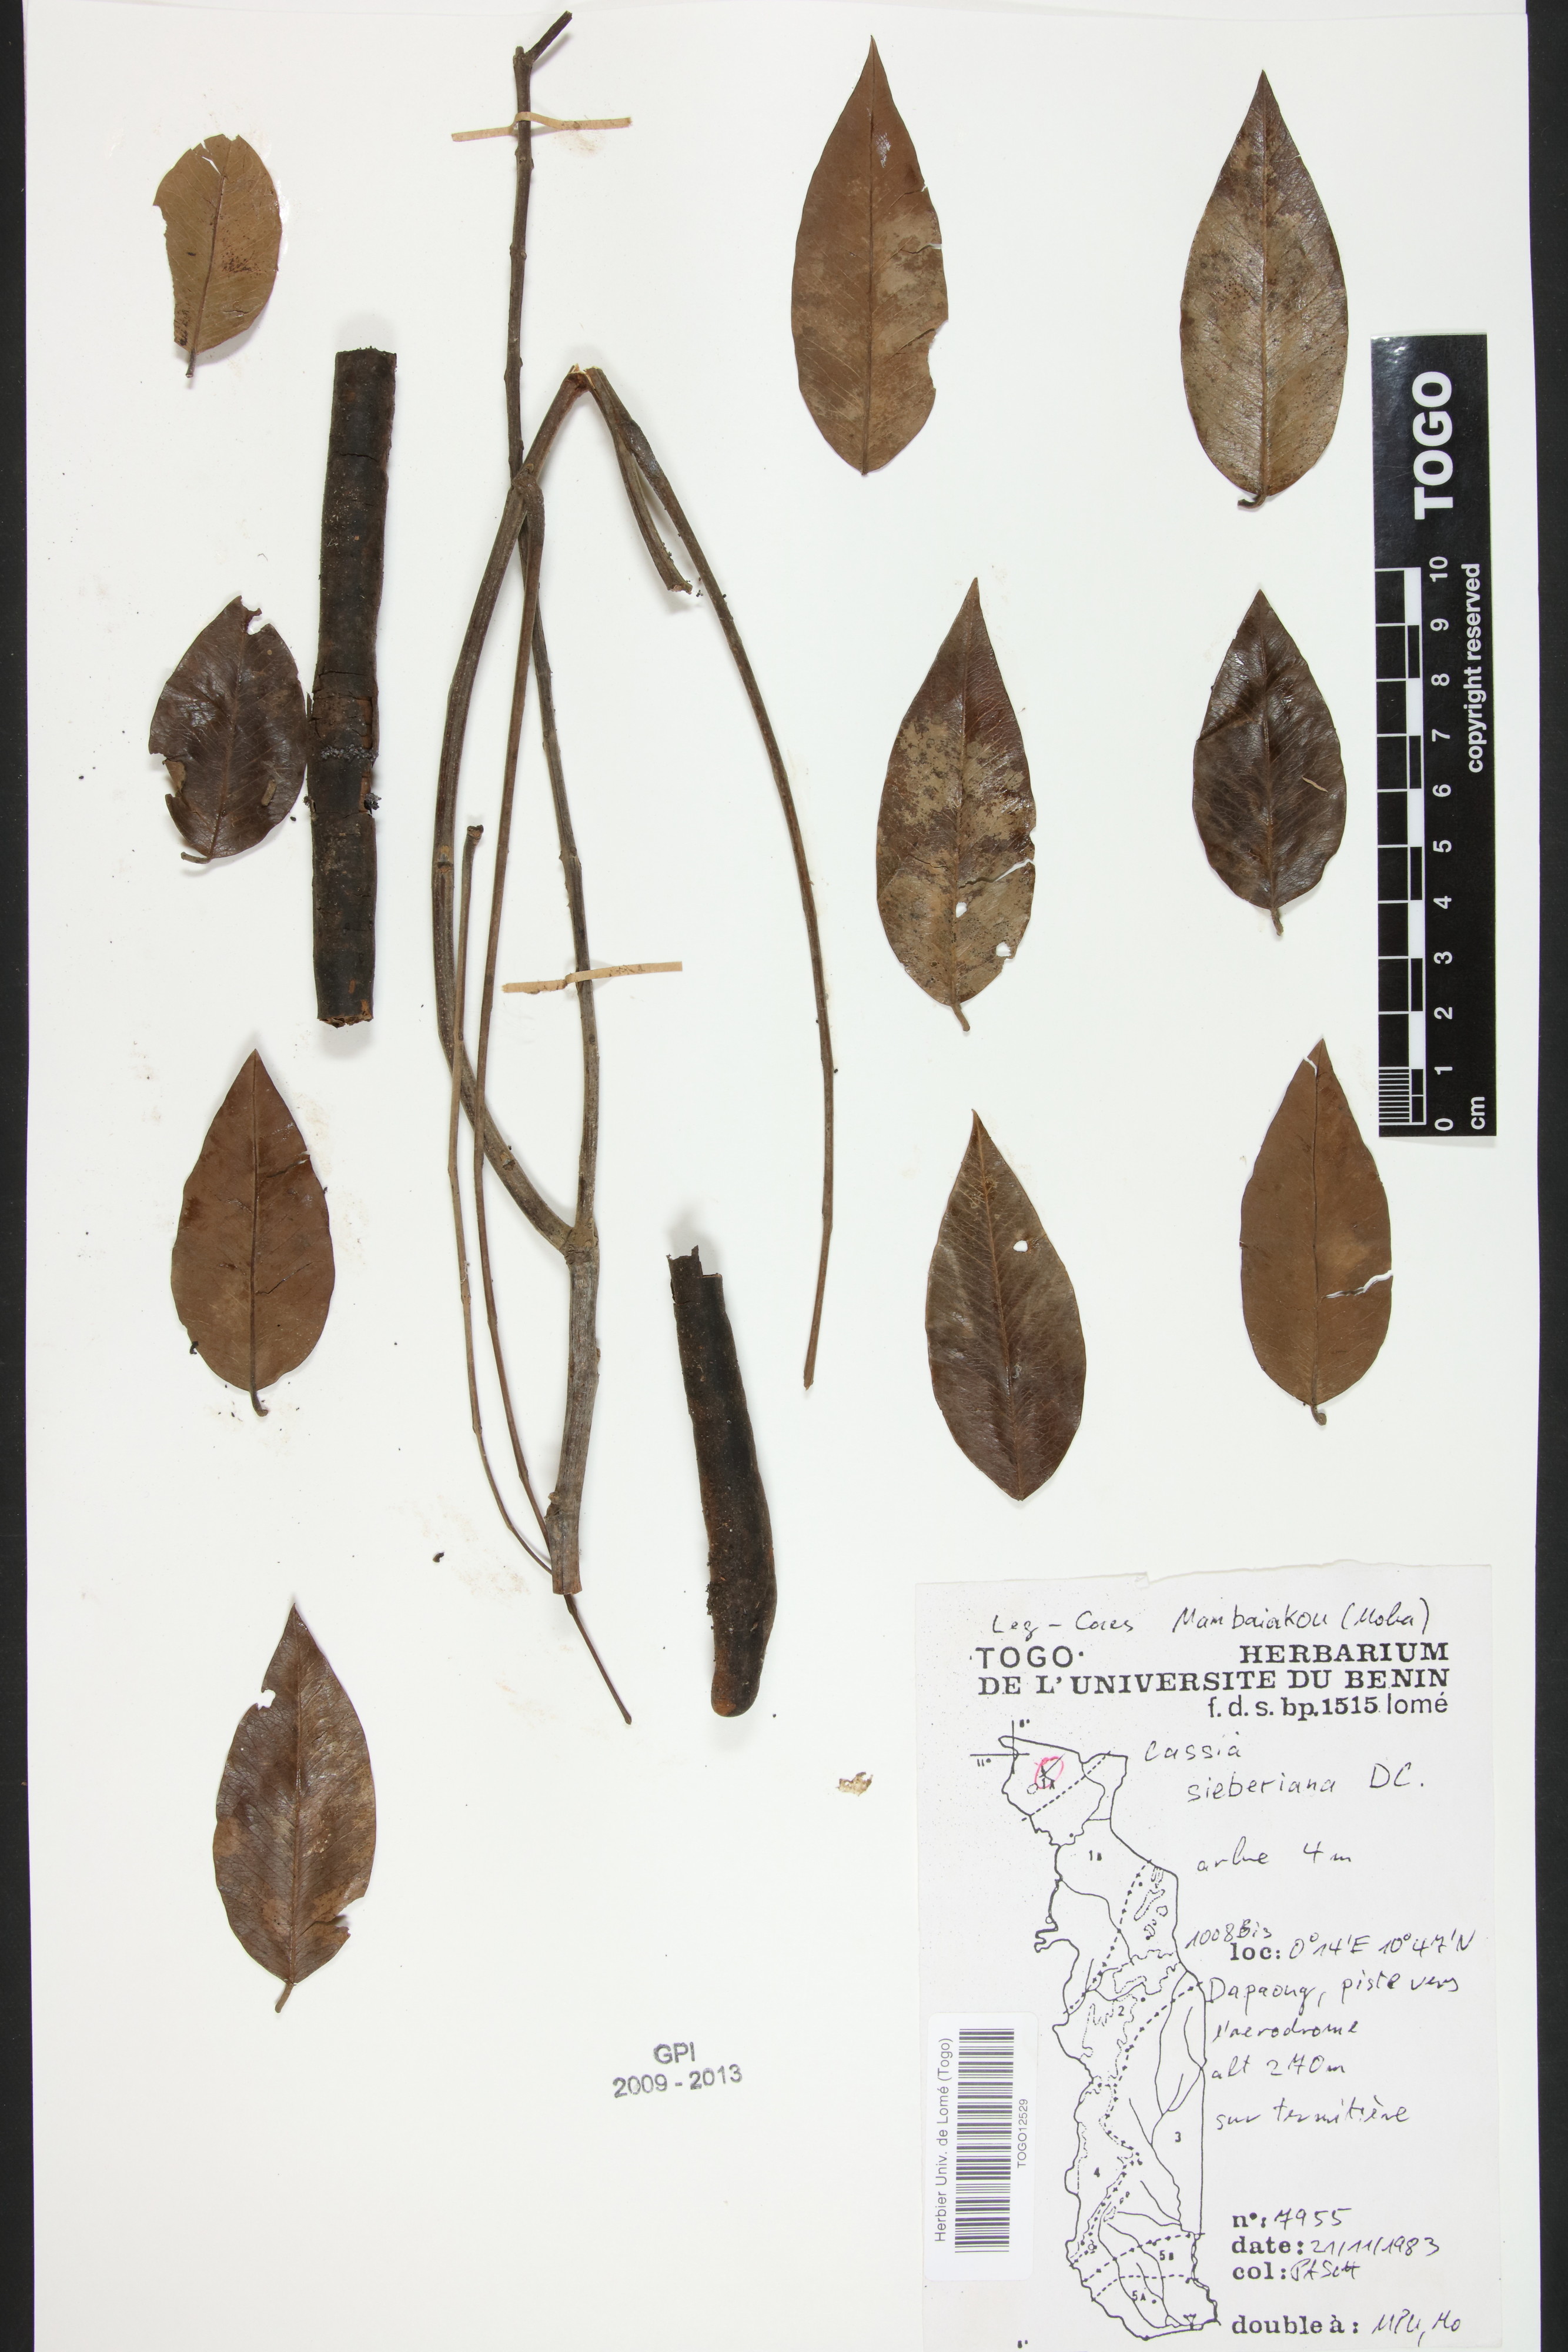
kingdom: Plantae
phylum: Tracheophyta
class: Magnoliopsida
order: Fabales
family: Fabaceae
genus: Cassia
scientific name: Cassia sieberiana
